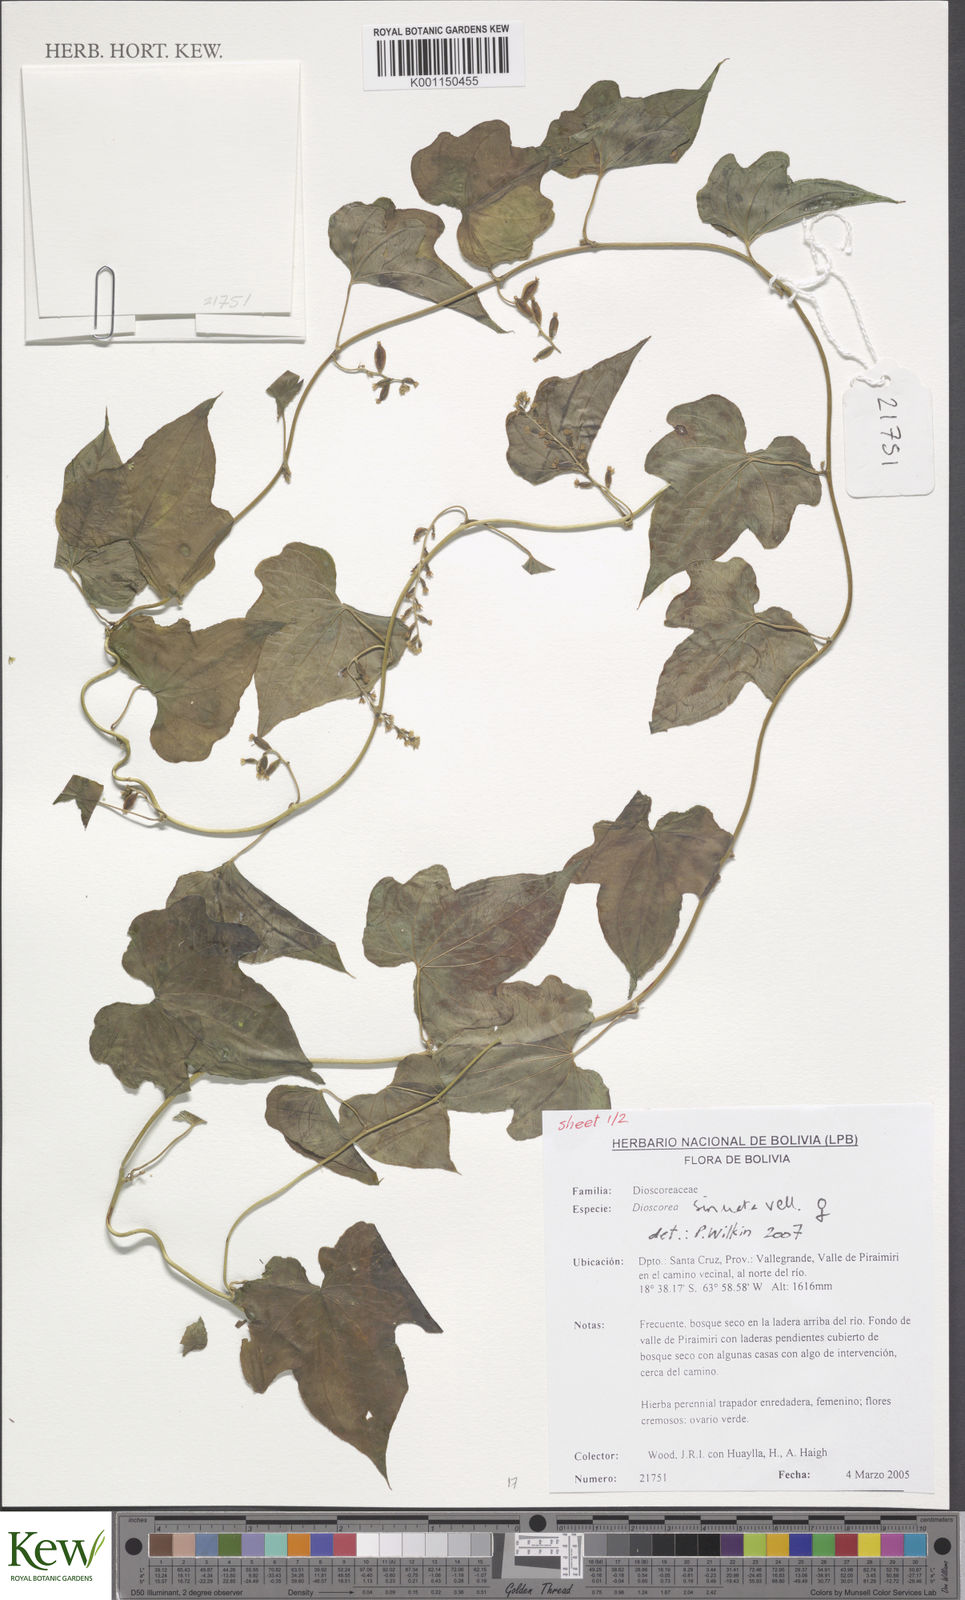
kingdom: Plantae
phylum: Tracheophyta
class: Liliopsida
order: Dioscoreales
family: Dioscoreaceae
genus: Dioscorea
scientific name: Dioscorea sinuata
